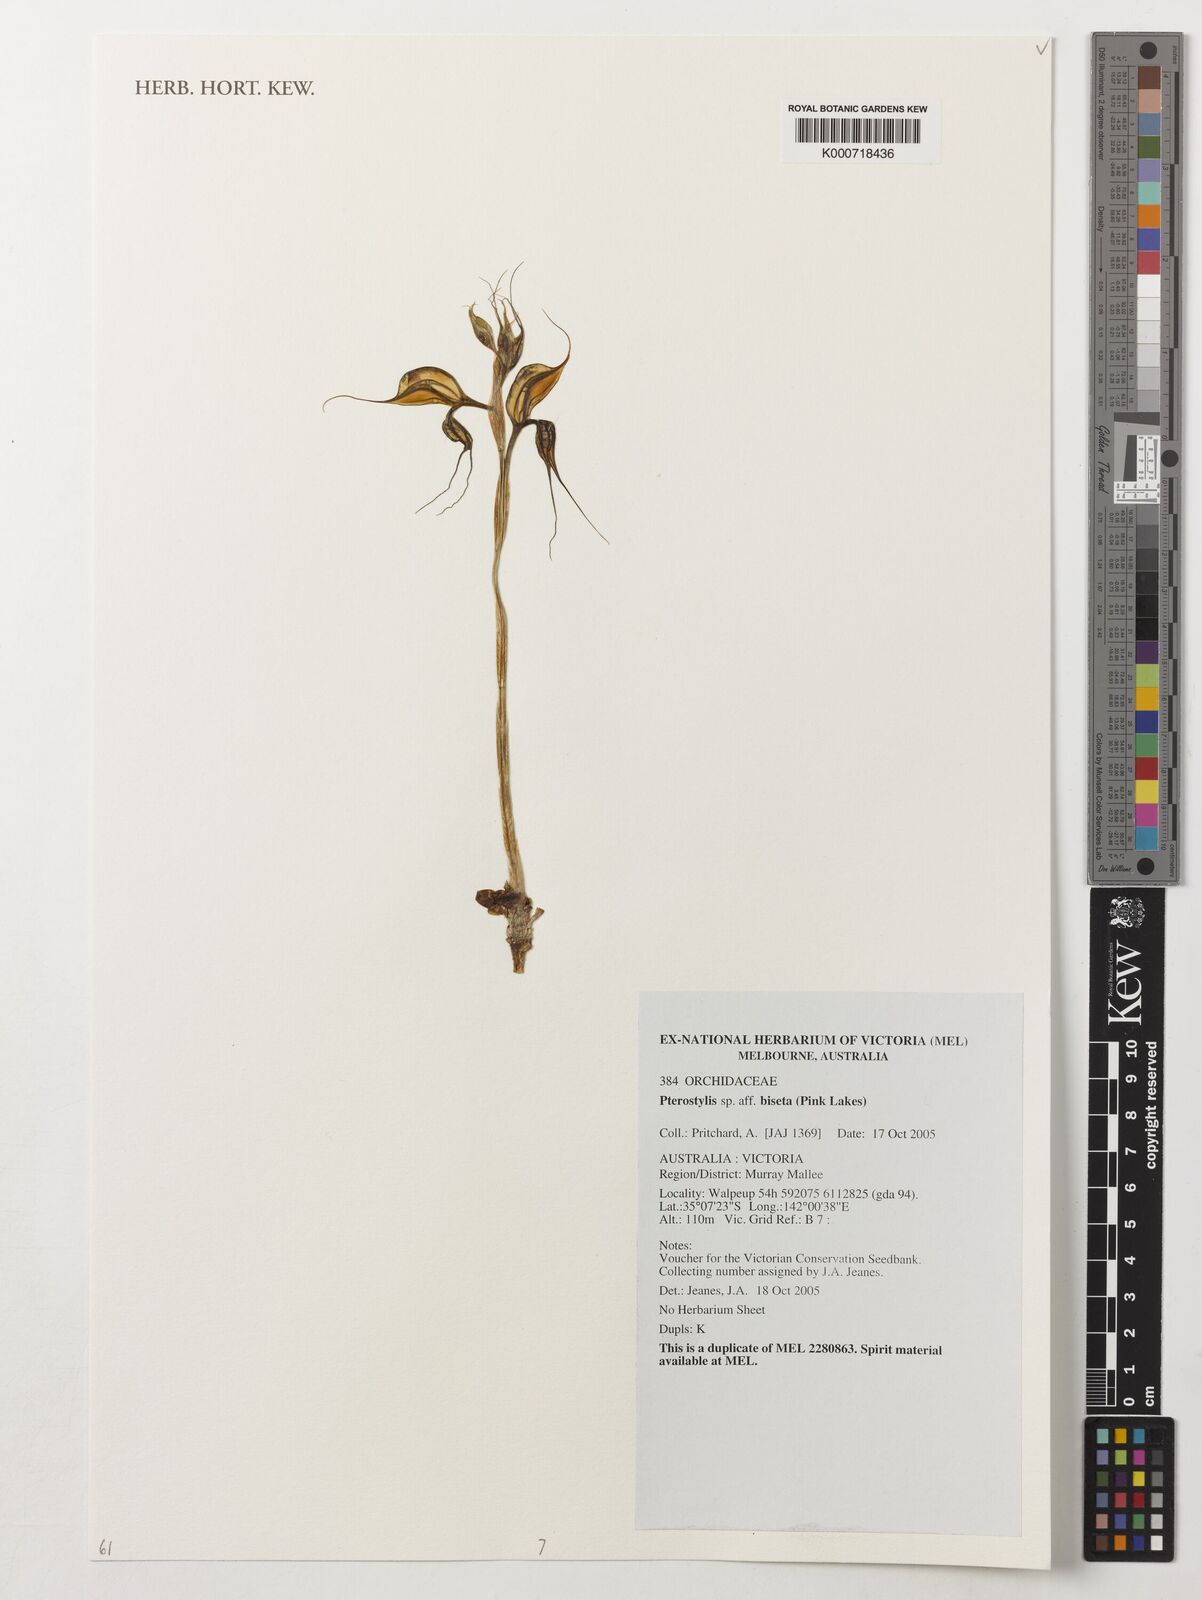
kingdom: Plantae
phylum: Tracheophyta
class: Liliopsida
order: Asparagales
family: Orchidaceae
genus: Pterostylis
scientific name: Pterostylis biseta
